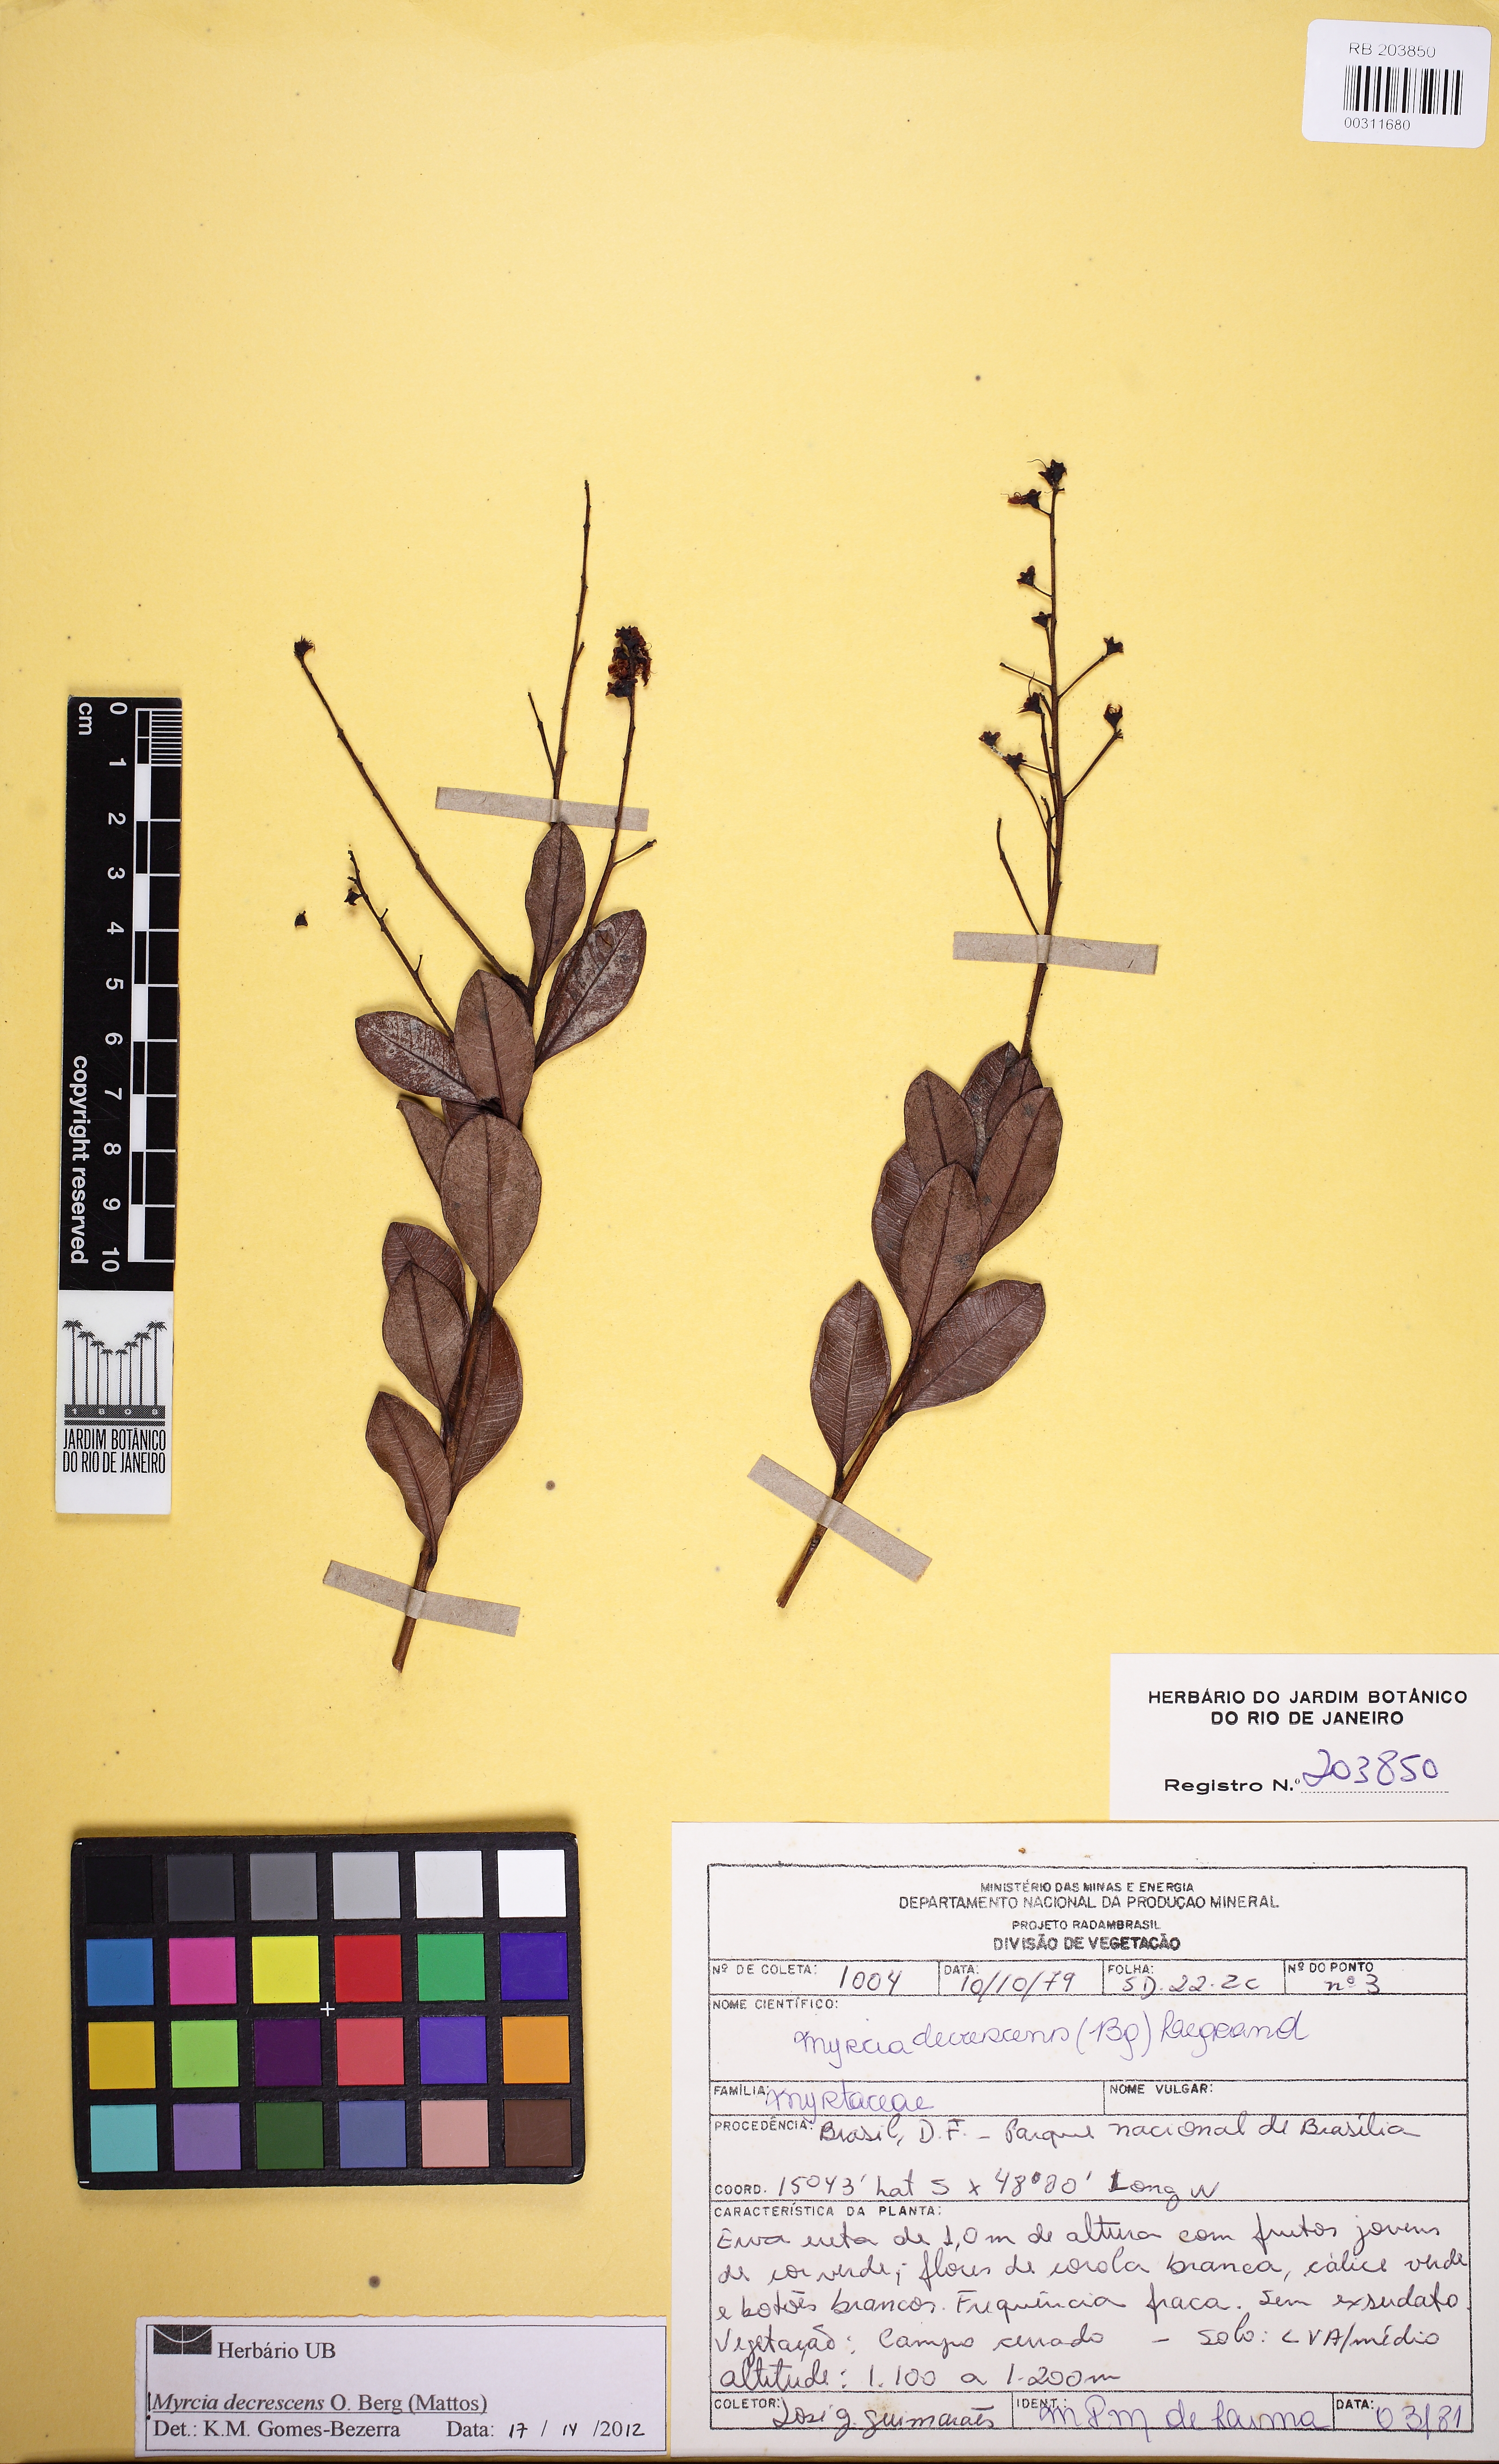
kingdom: Plantae
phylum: Tracheophyta
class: Magnoliopsida
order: Myrtales
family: Myrtaceae
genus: Myrcia
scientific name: Myrcia guianensis
